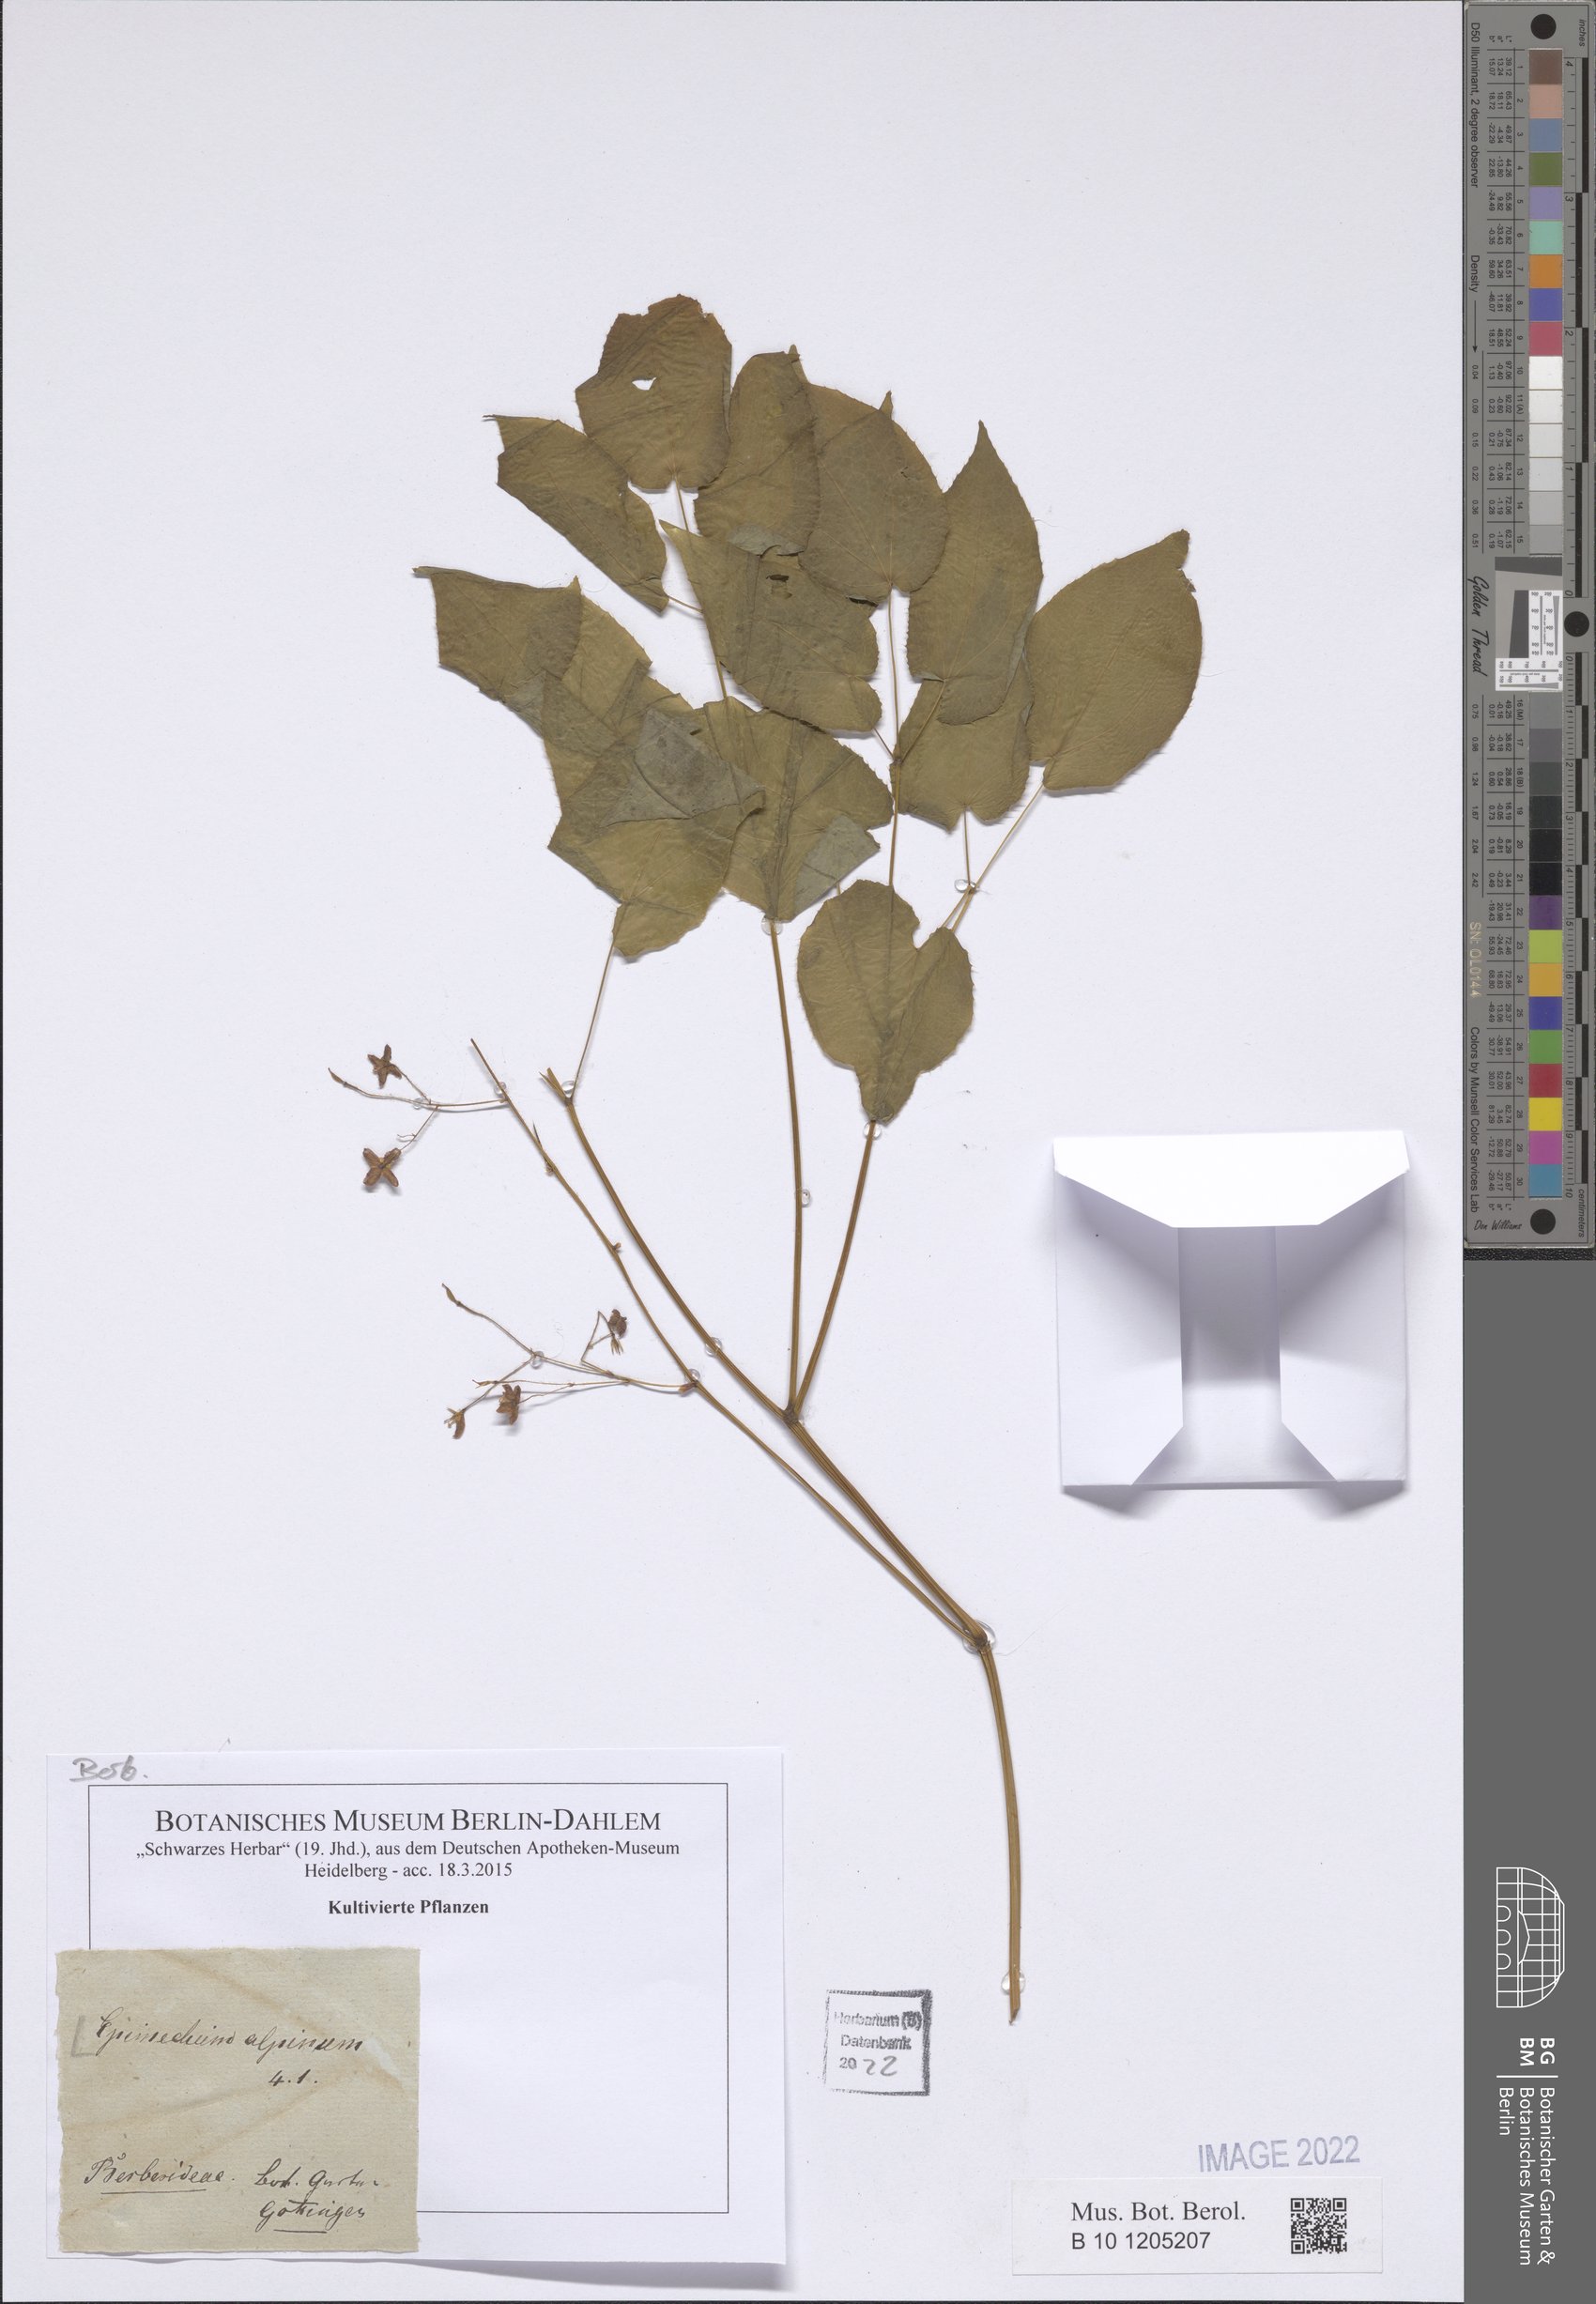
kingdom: Plantae
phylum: Tracheophyta
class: Magnoliopsida
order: Ranunculales
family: Berberidaceae
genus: Epimedium
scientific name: Epimedium alpinum
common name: Barrenwort
